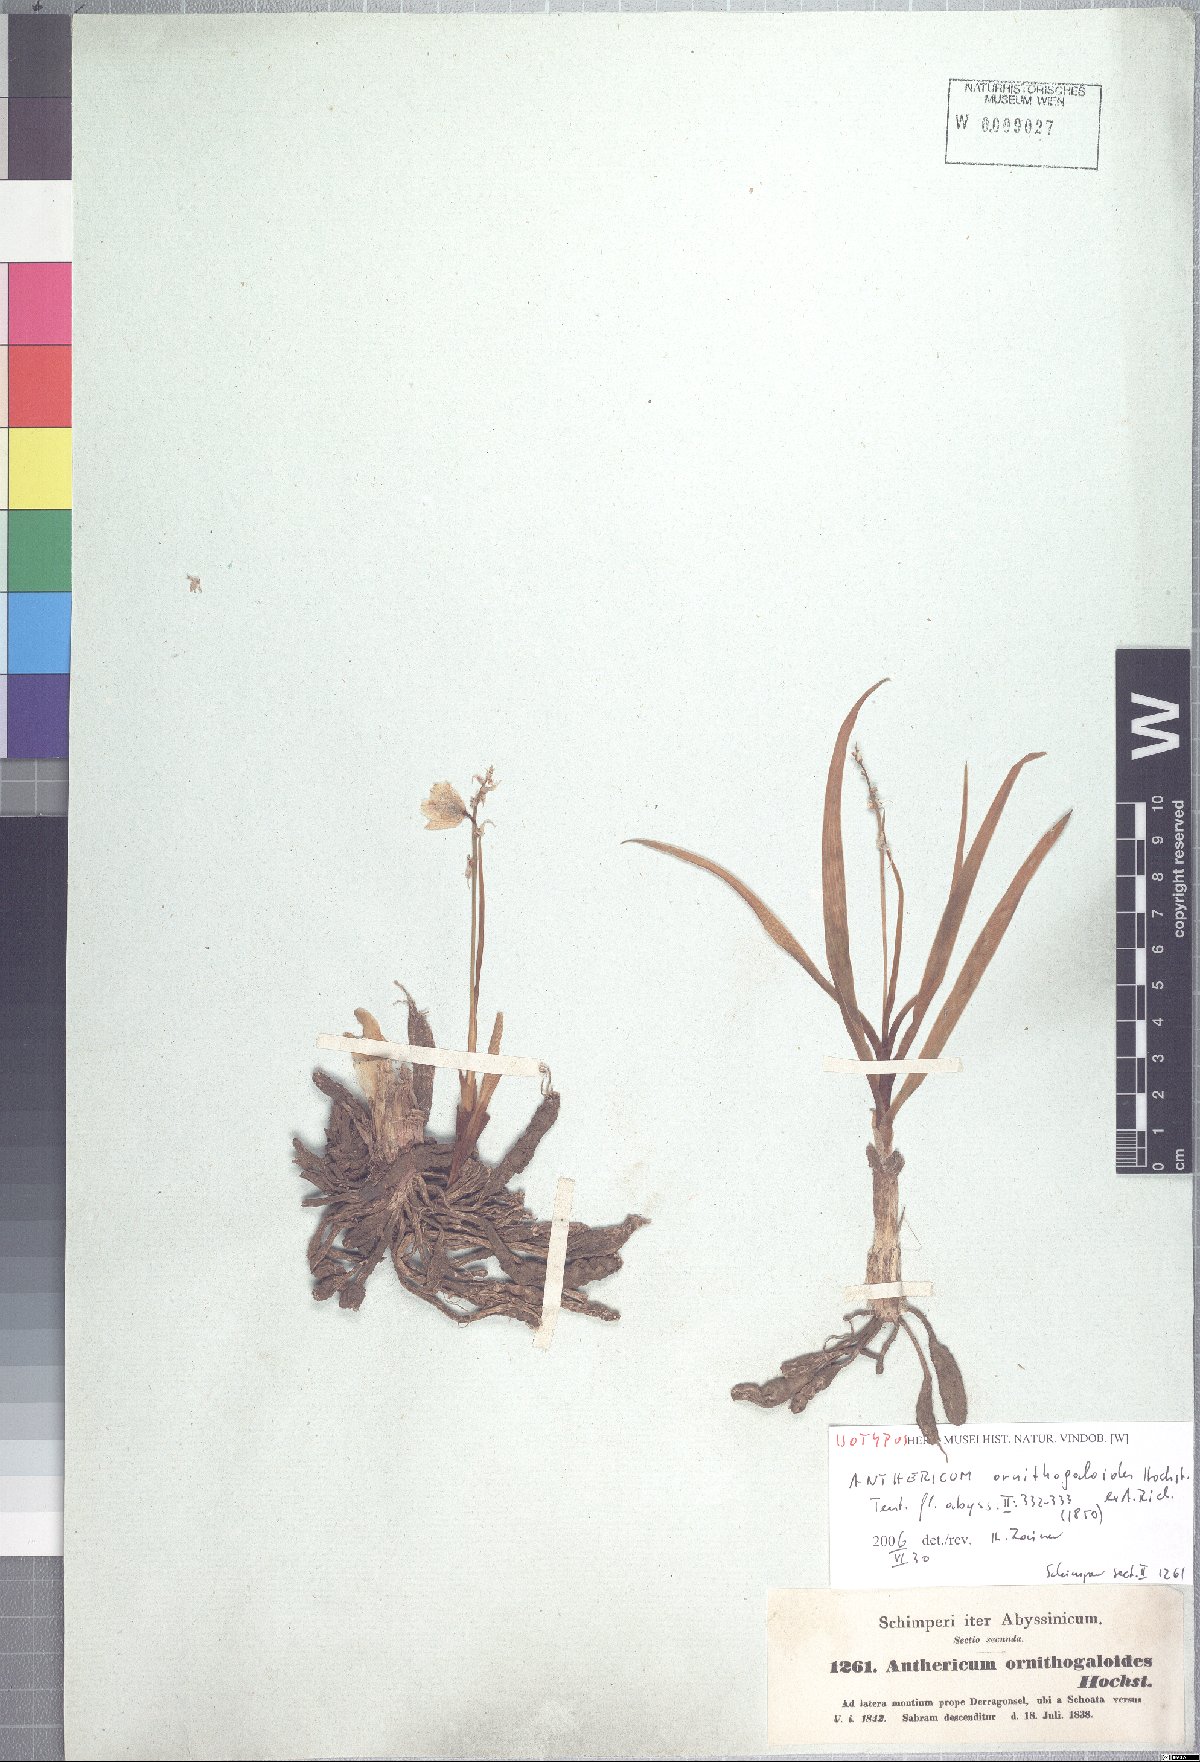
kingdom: Plantae
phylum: Tracheophyta
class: Liliopsida
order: Asparagales
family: Asparagaceae
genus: Chlorophytum
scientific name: Chlorophytum tuberosum
